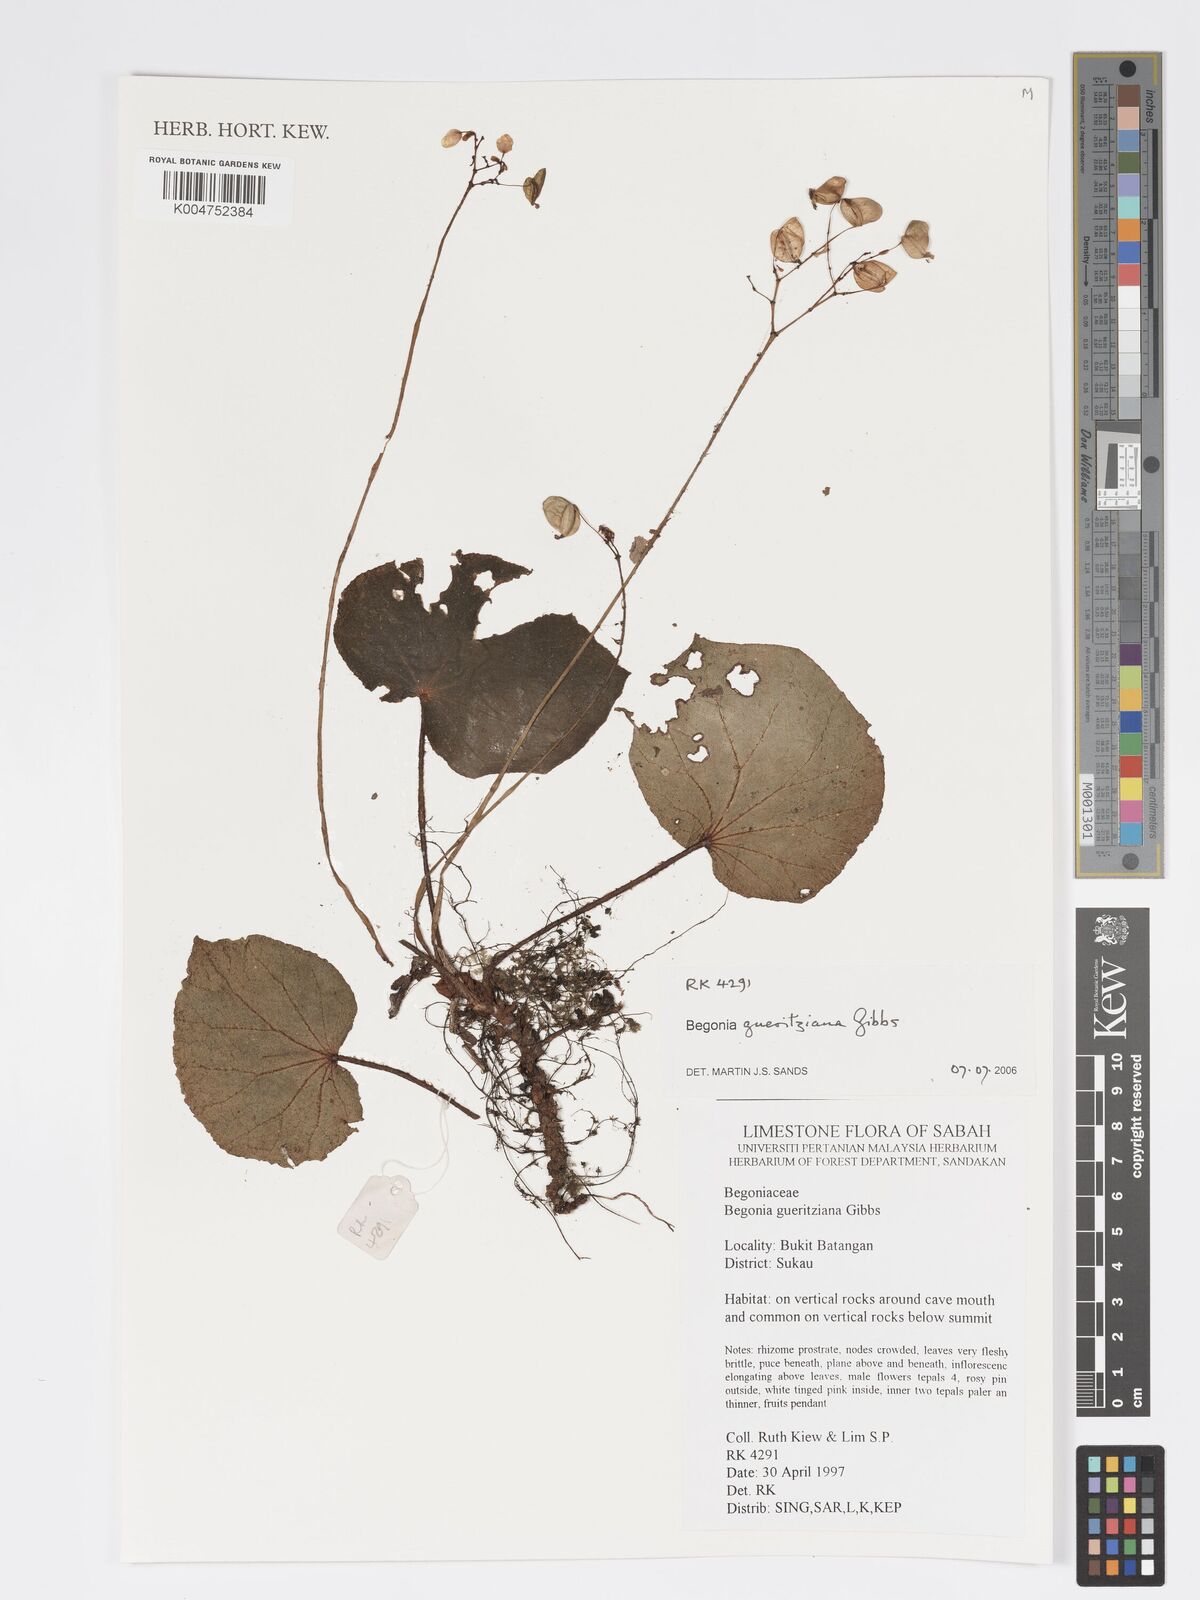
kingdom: Plantae
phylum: Tracheophyta
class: Magnoliopsida
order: Cucurbitales
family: Begoniaceae
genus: Begonia
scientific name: Begonia gueritziana
